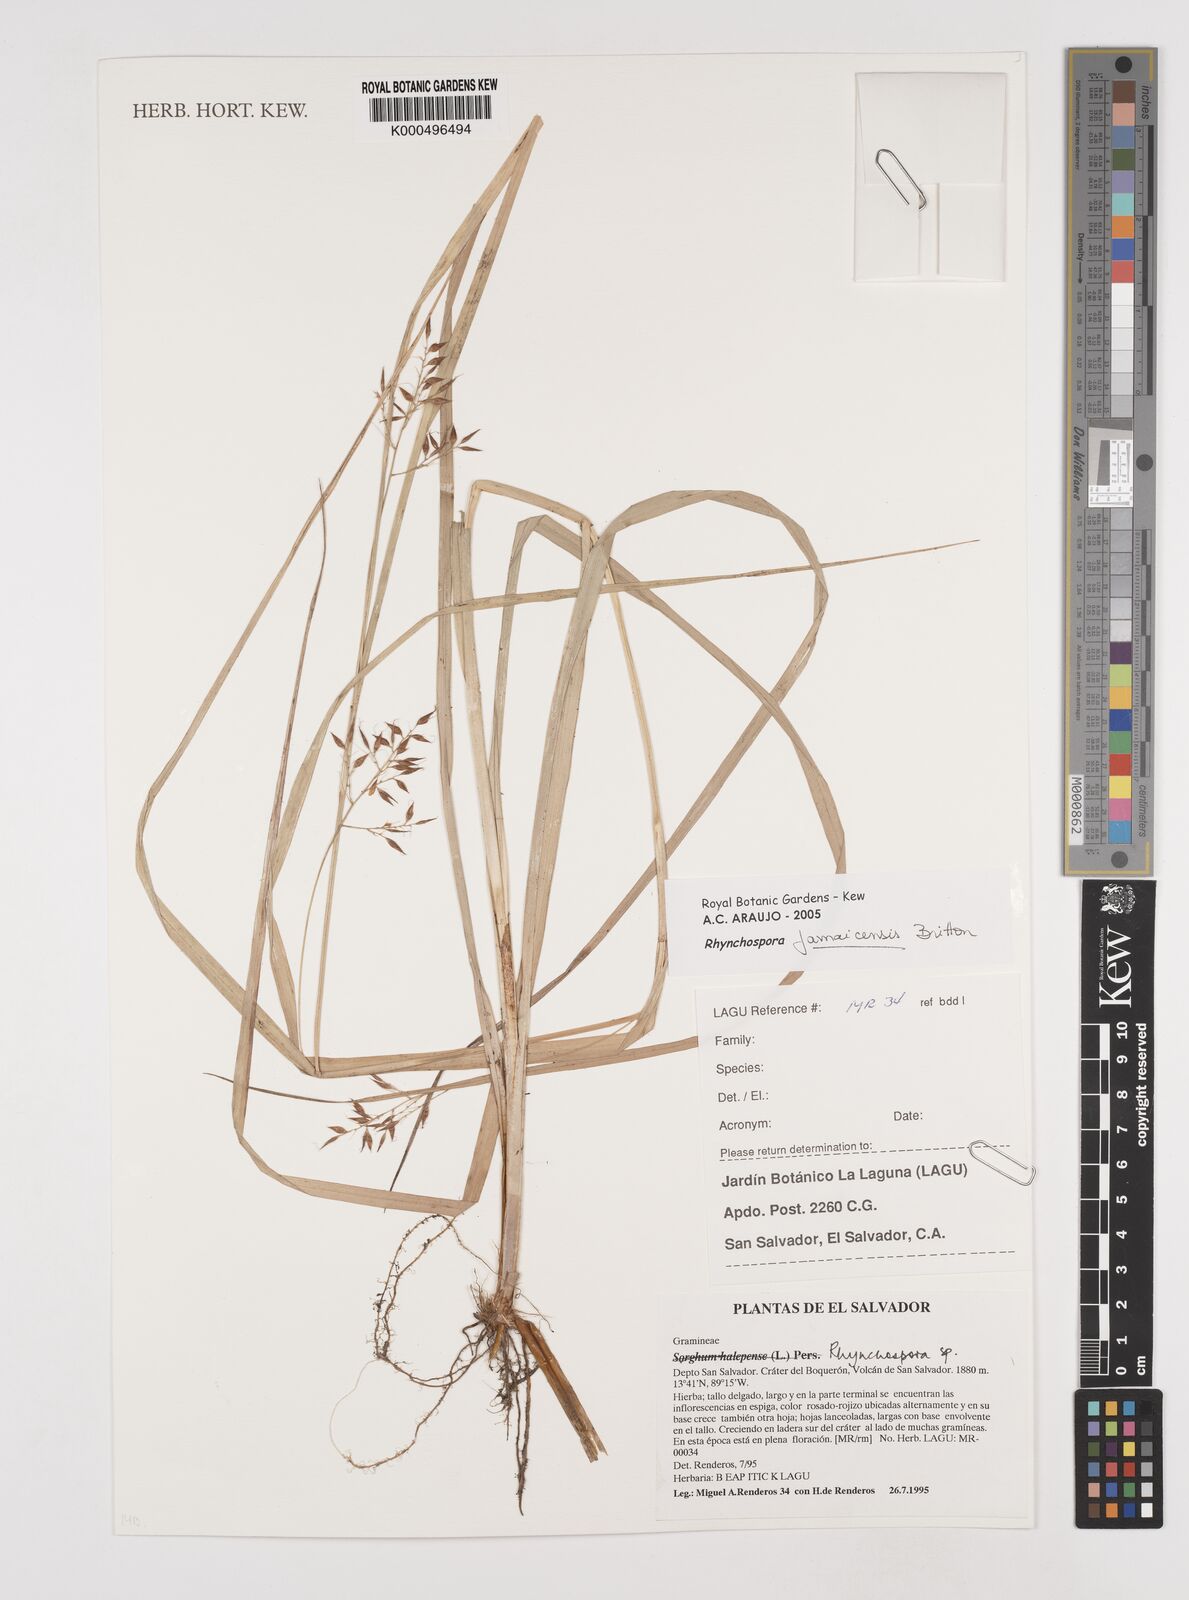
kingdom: Plantae
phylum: Tracheophyta
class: Liliopsida
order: Poales
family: Cyperaceae
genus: Rhynchospora
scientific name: Rhynchospora jamaicensis
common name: Jamaican beaksedge
